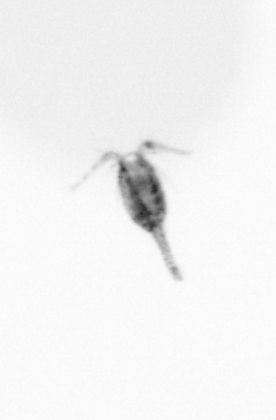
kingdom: Animalia
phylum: Arthropoda
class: Copepoda
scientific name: Copepoda
